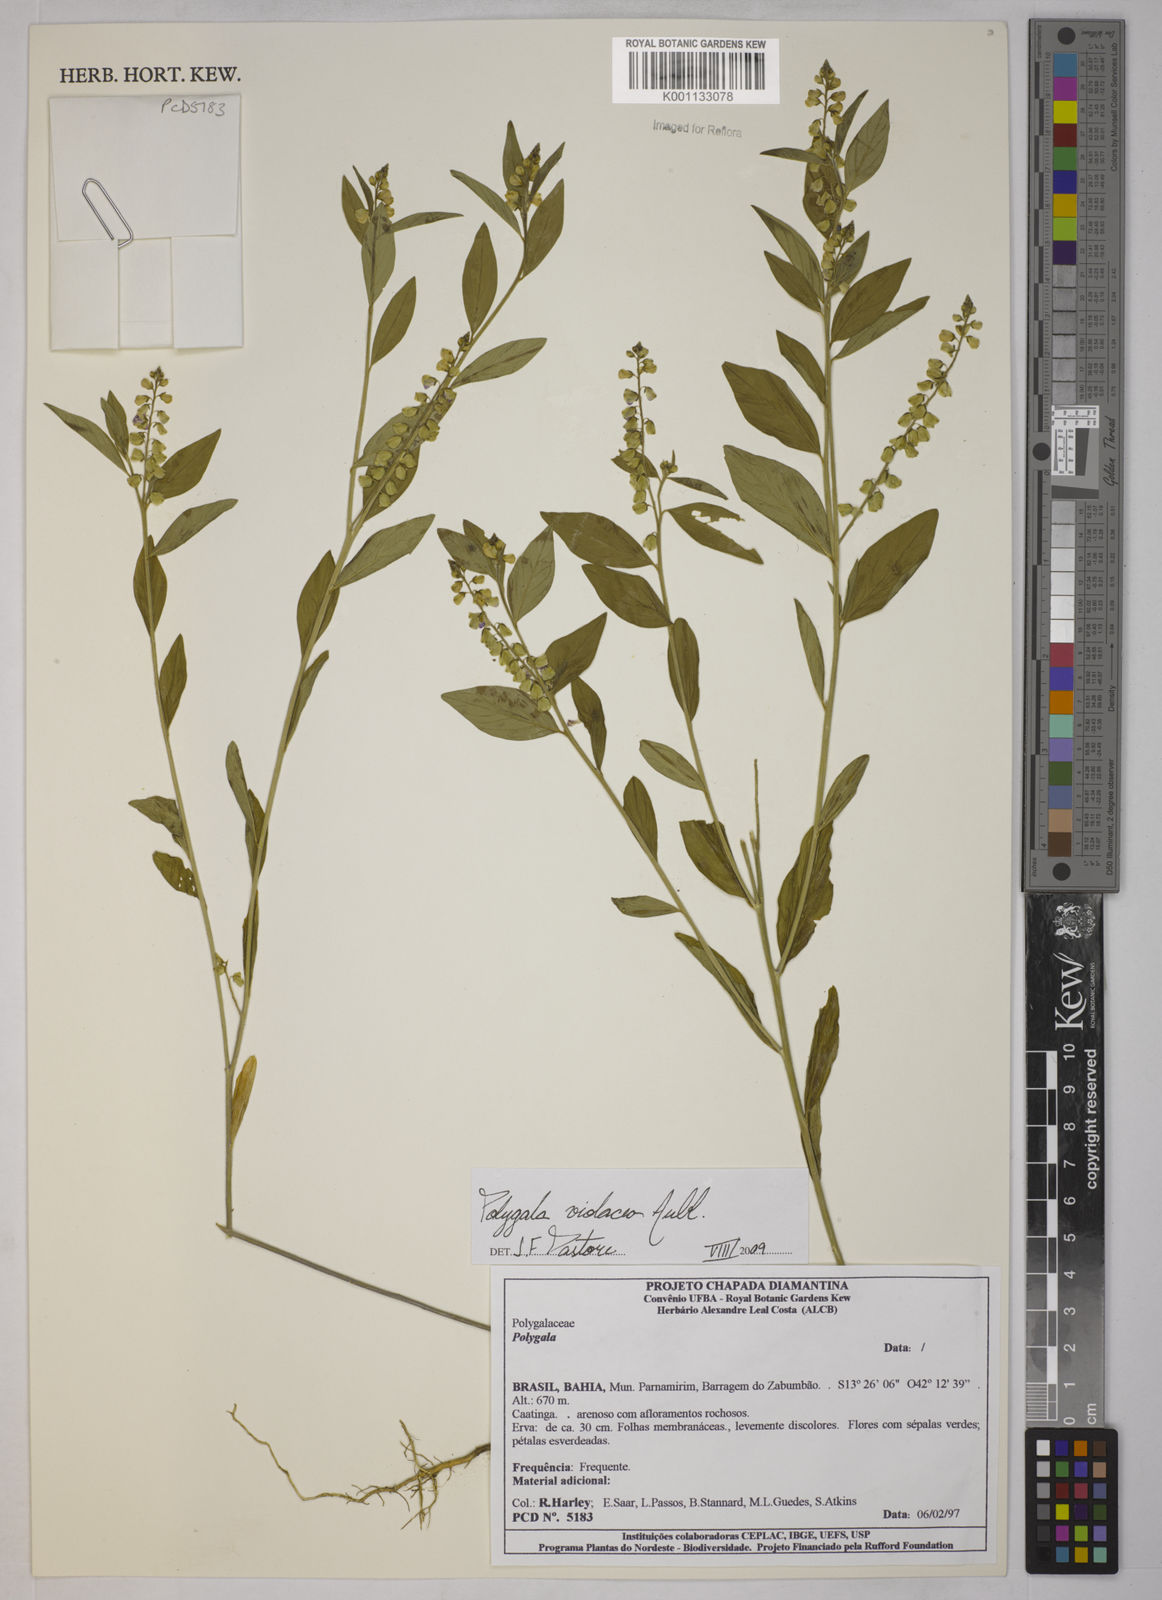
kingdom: Plantae
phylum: Tracheophyta
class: Magnoliopsida
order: Fabales
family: Polygalaceae
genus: Polygala
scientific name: Polygala
